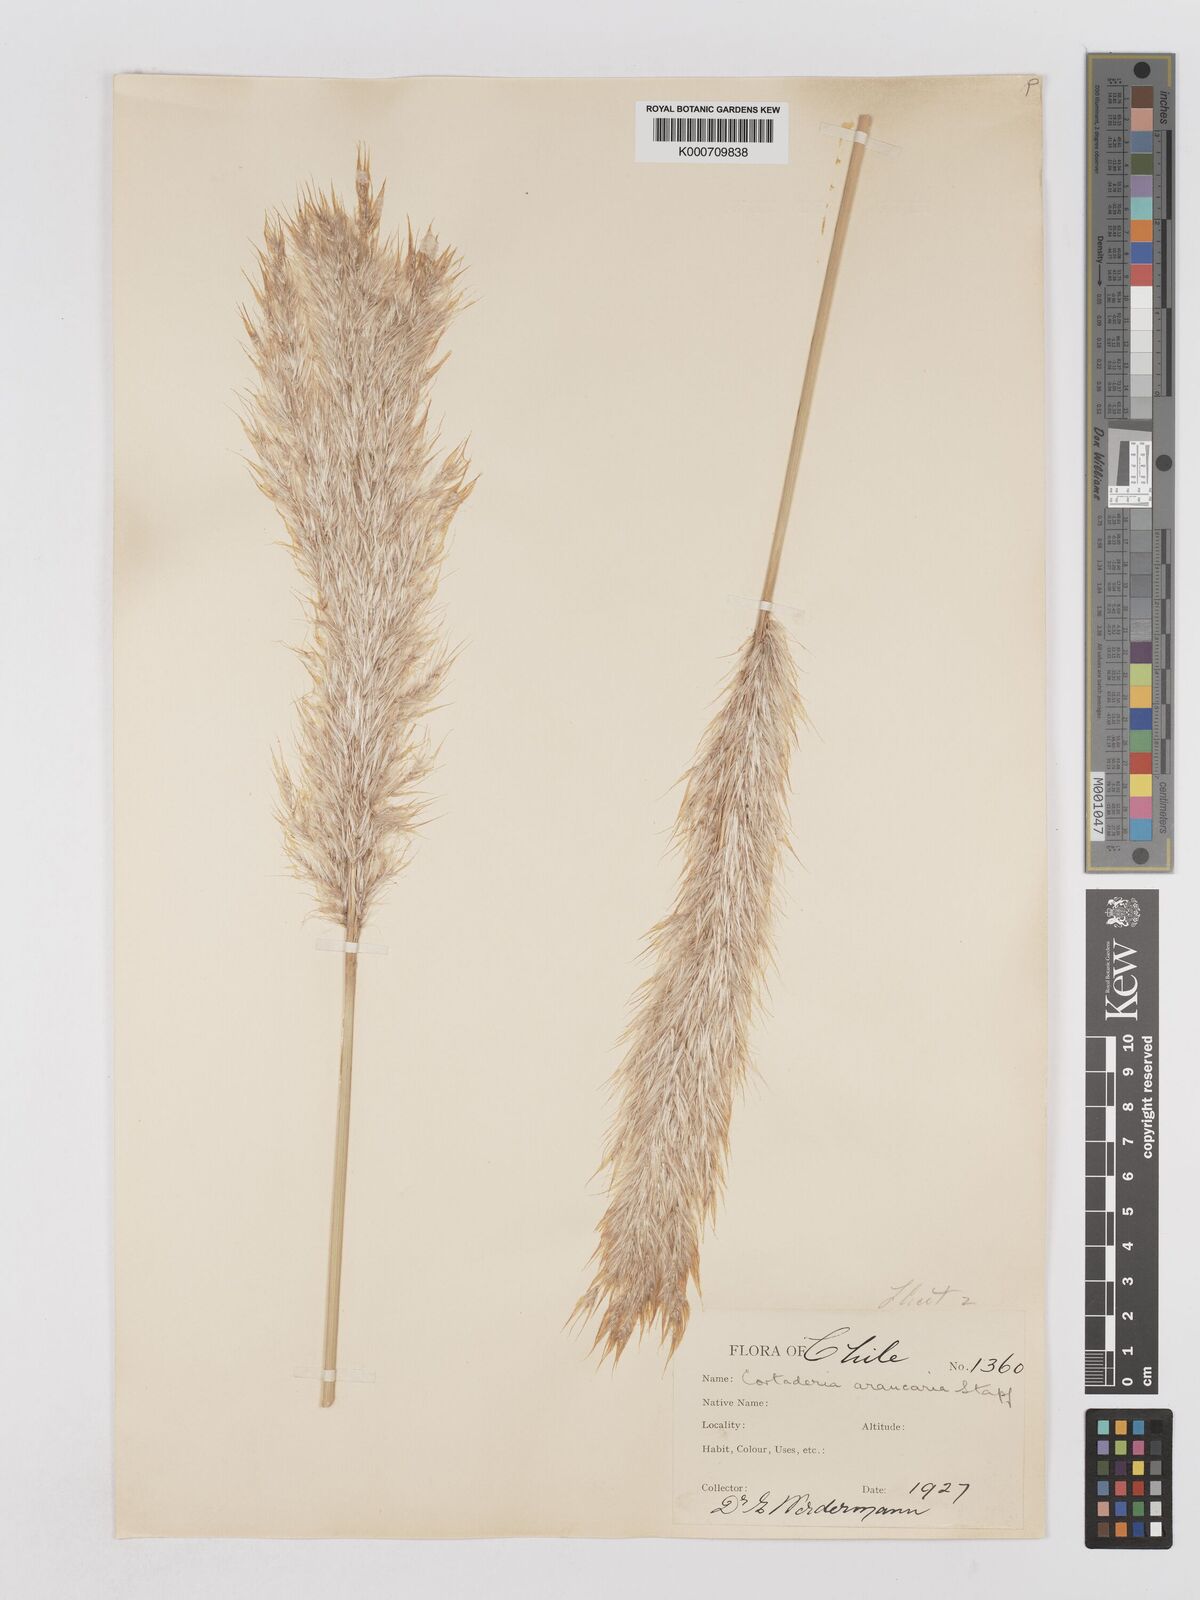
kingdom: Plantae
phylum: Tracheophyta
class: Liliopsida
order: Poales
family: Poaceae
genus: Cortaderia
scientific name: Cortaderia araucana
